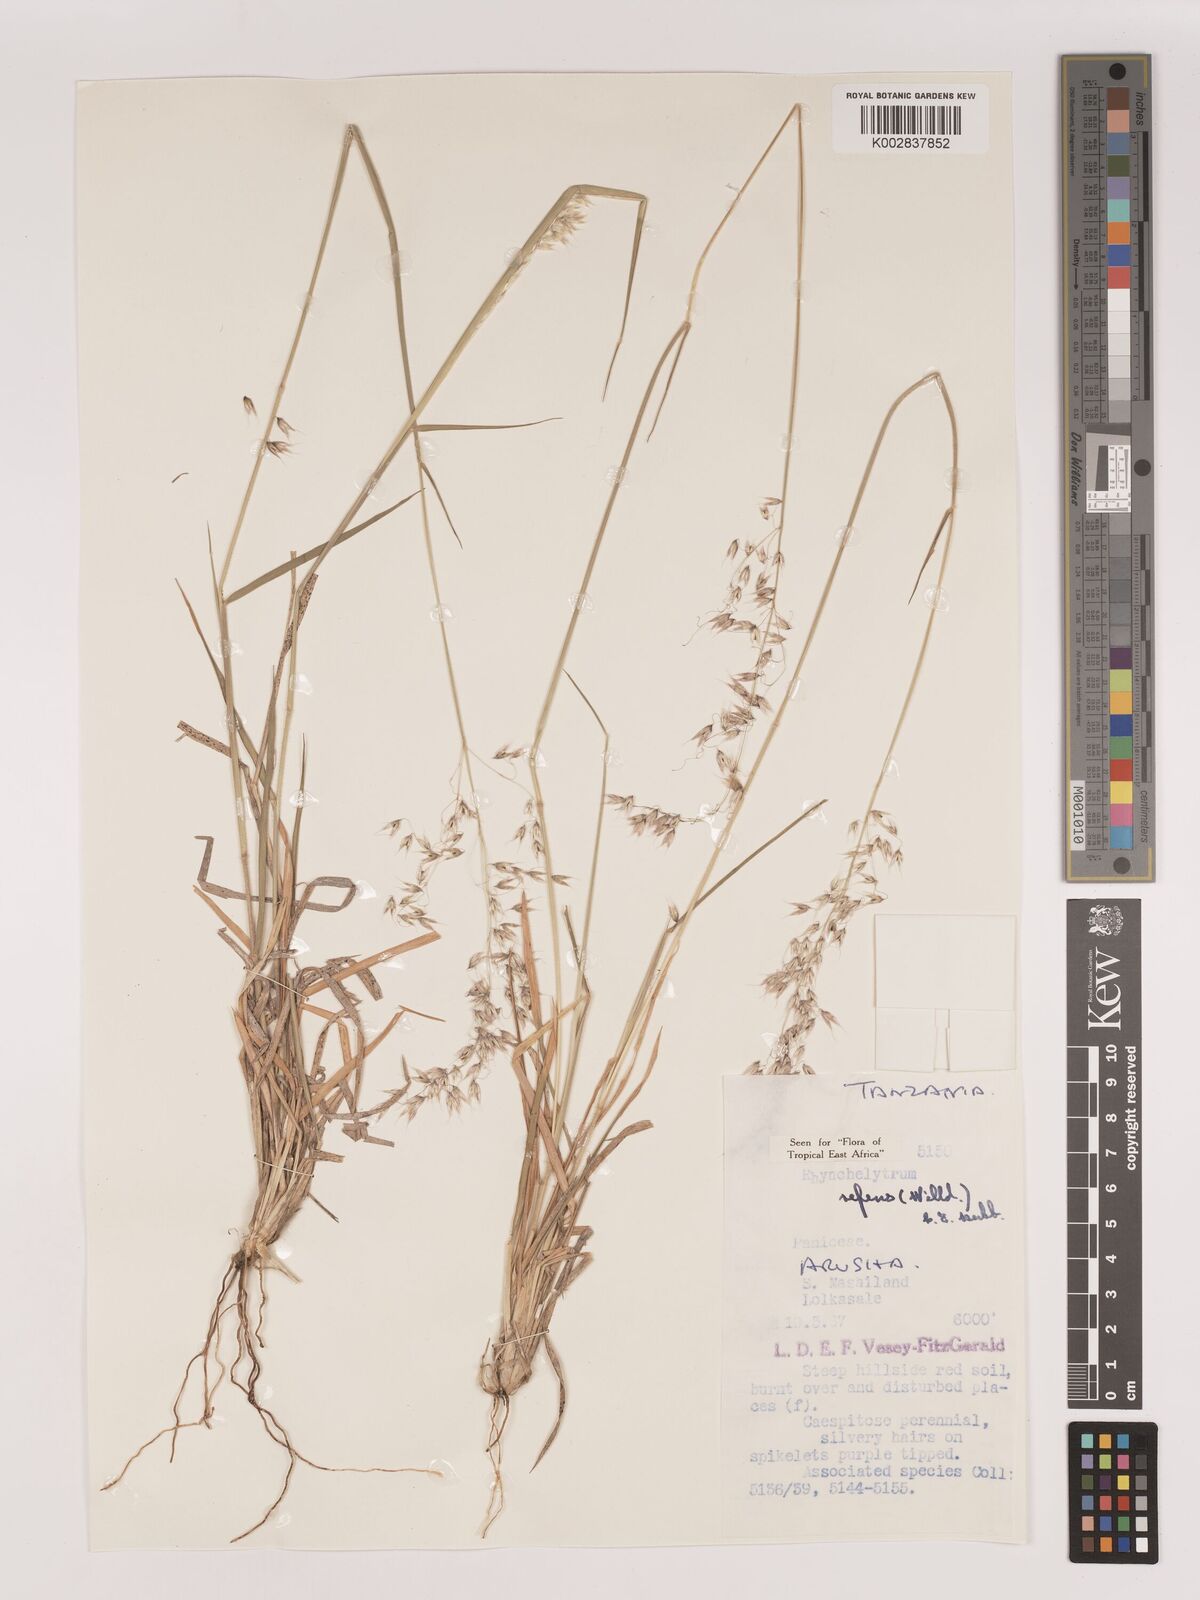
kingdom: Plantae
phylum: Tracheophyta
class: Liliopsida
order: Poales
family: Poaceae
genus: Melinis
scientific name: Melinis repens
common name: Rose natal grass
